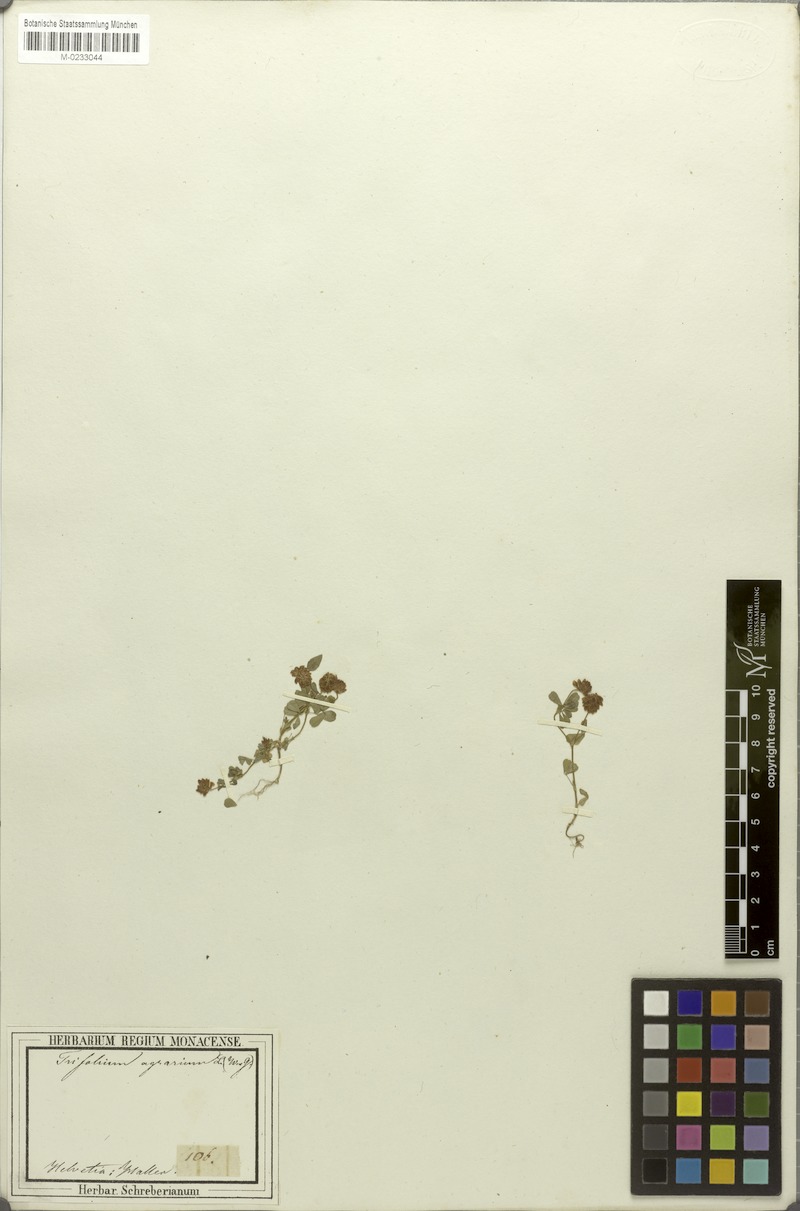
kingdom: Plantae
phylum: Tracheophyta
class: Magnoliopsida
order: Fabales
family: Fabaceae
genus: Trifolium
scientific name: Trifolium campestre
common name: Field clover
